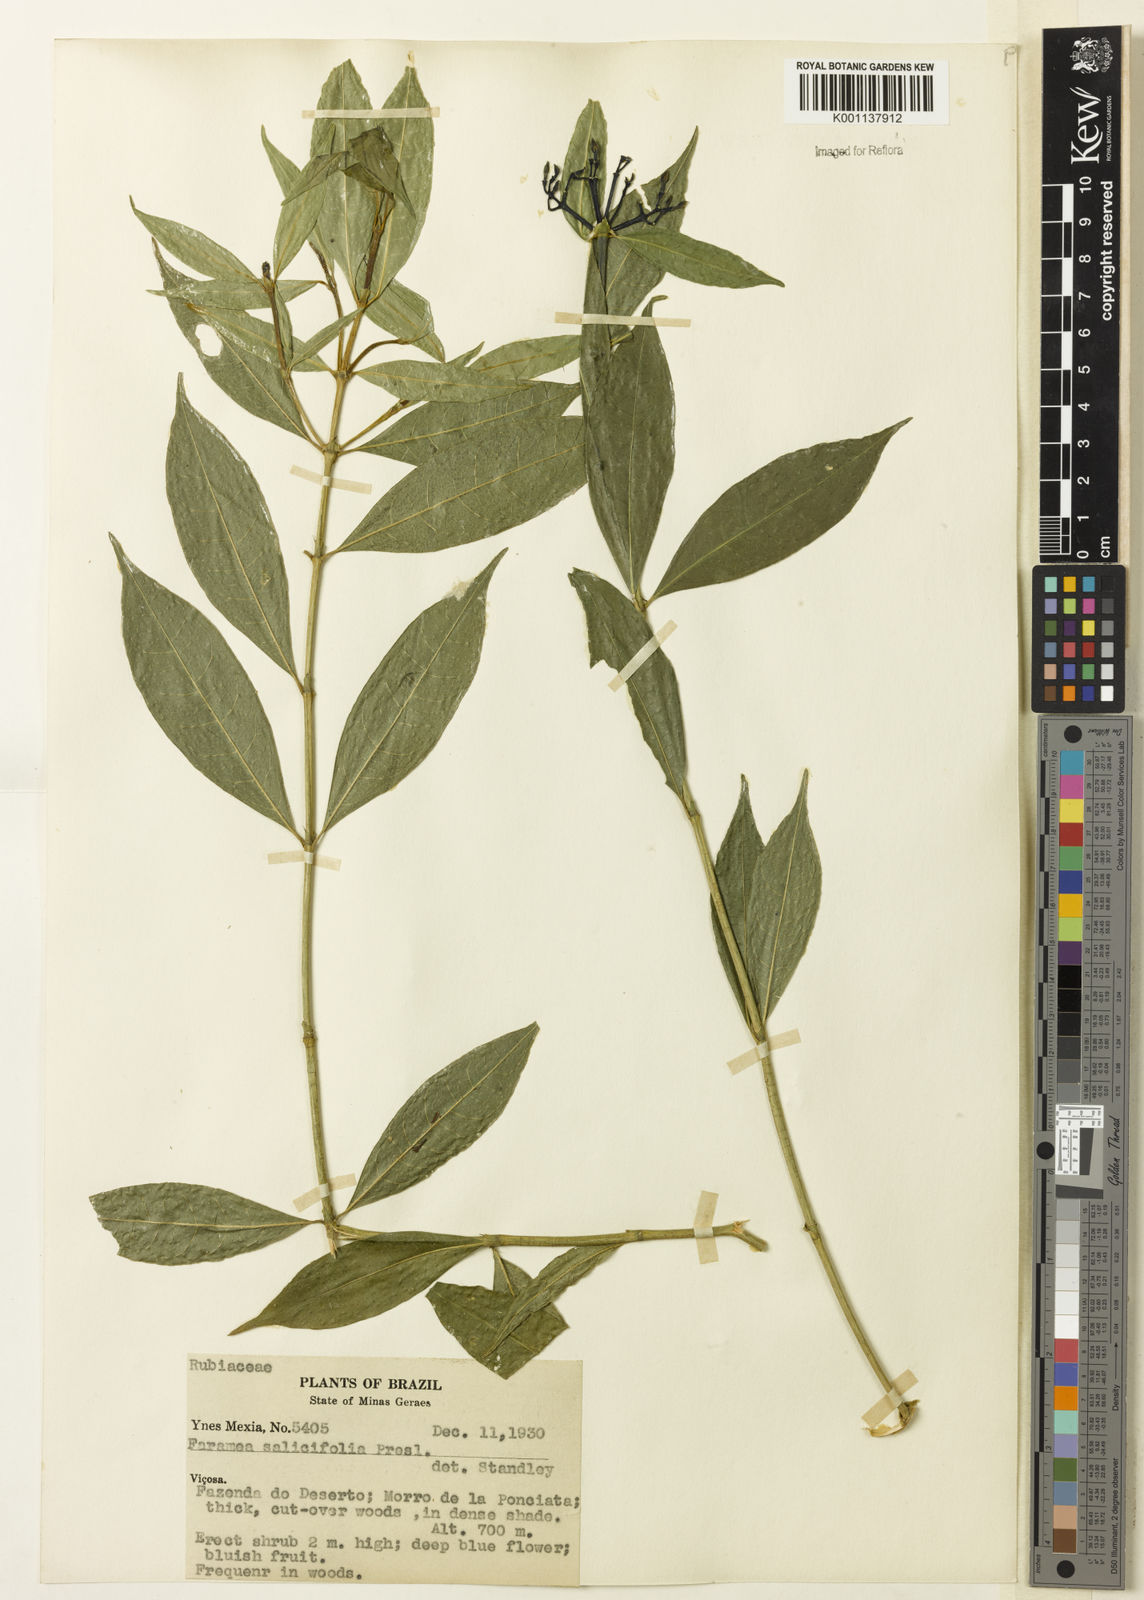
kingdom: Plantae
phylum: Tracheophyta
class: Magnoliopsida
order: Gentianales
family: Rubiaceae
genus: Faramea
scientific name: Faramea multiflora
